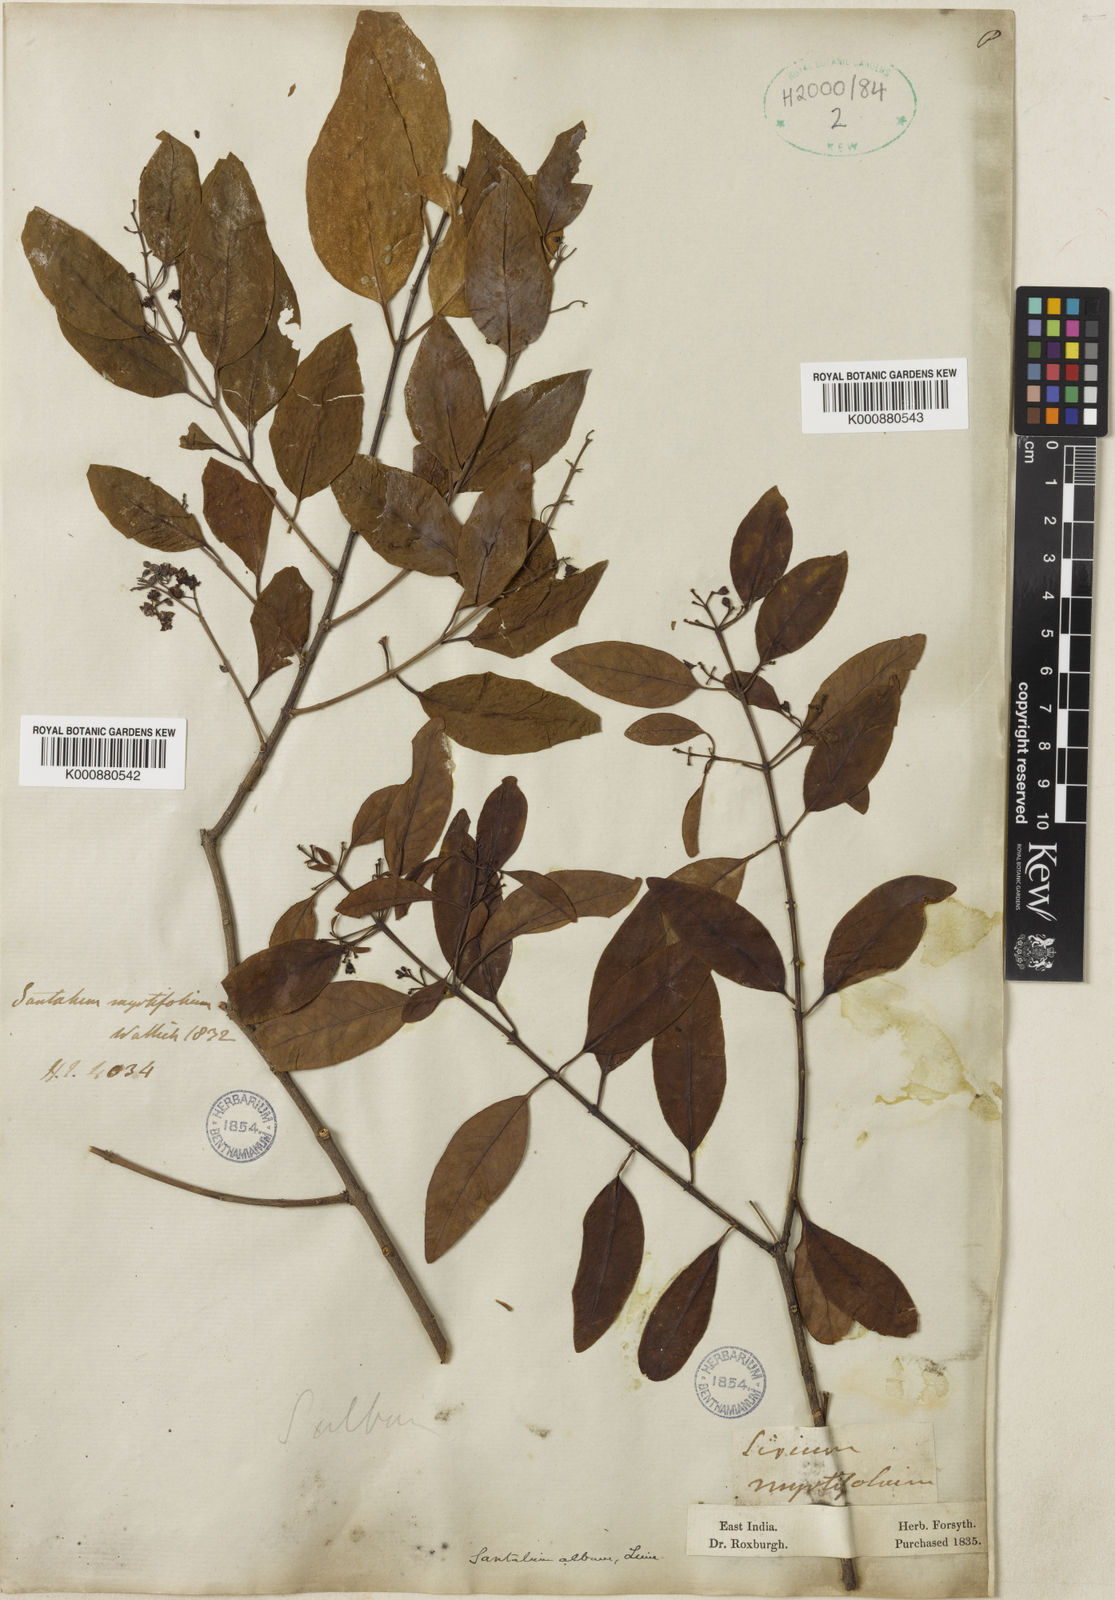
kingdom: Plantae
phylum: Tracheophyta
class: Magnoliopsida
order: Santalales
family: Santalaceae
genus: Santalum
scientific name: Santalum album
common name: Indian sandalwood
